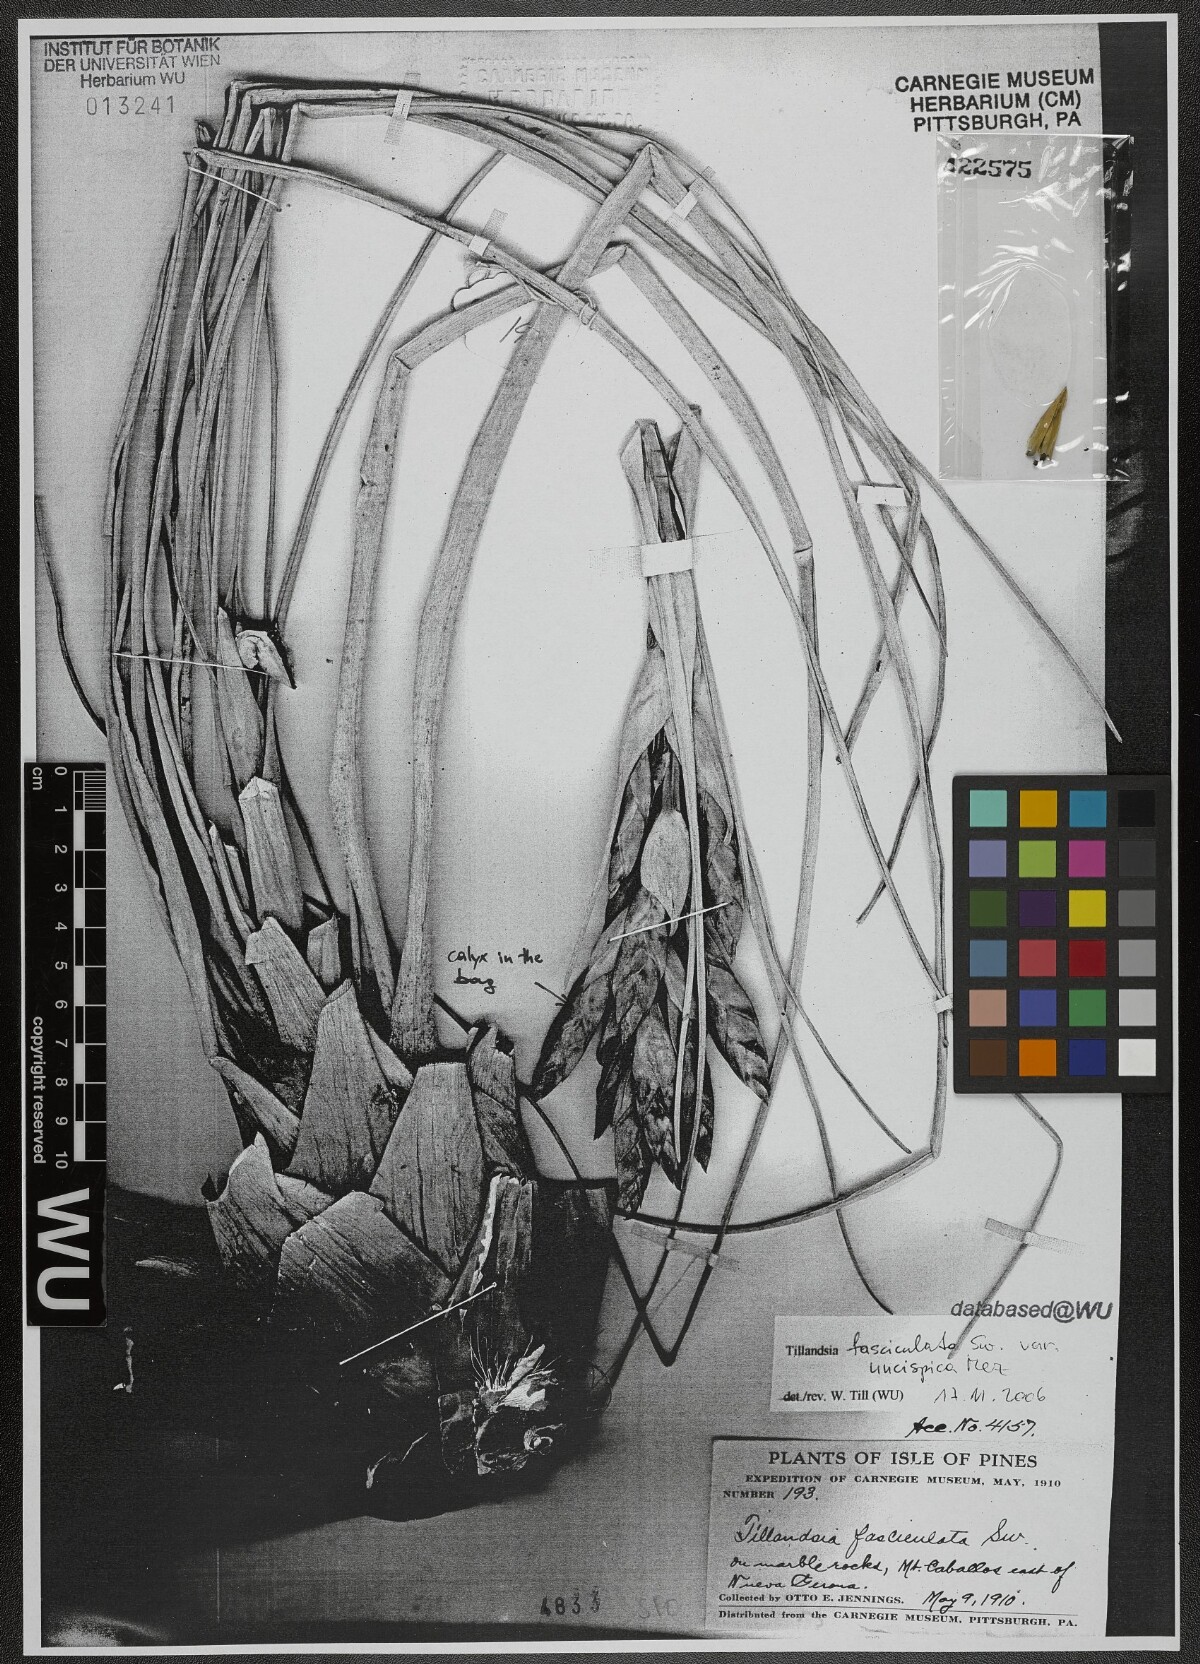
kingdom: Plantae
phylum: Tracheophyta
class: Liliopsida
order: Poales
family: Bromeliaceae
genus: Tillandsia
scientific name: Tillandsia fasciculata
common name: Giant airplant
